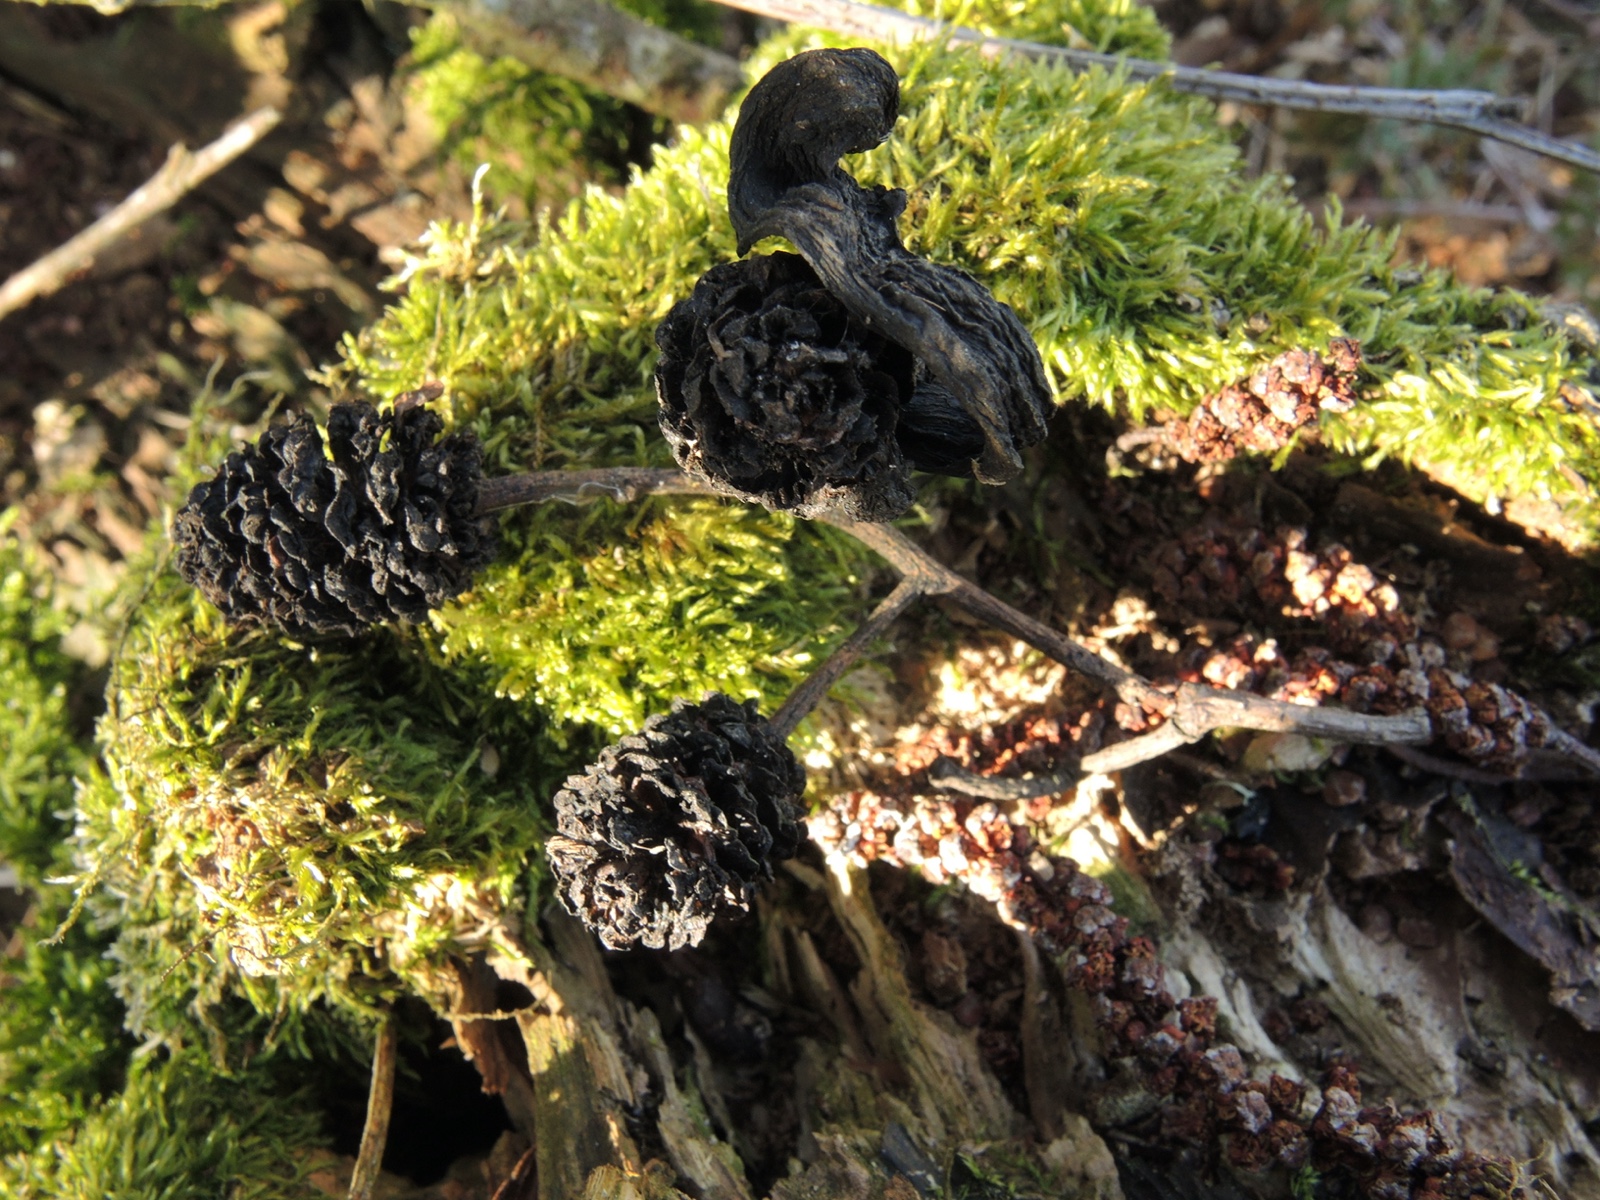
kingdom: Fungi
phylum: Ascomycota
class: Taphrinomycetes
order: Taphrinales
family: Taphrinaceae
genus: Taphrina
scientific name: Taphrina alni
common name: Alder tongue
